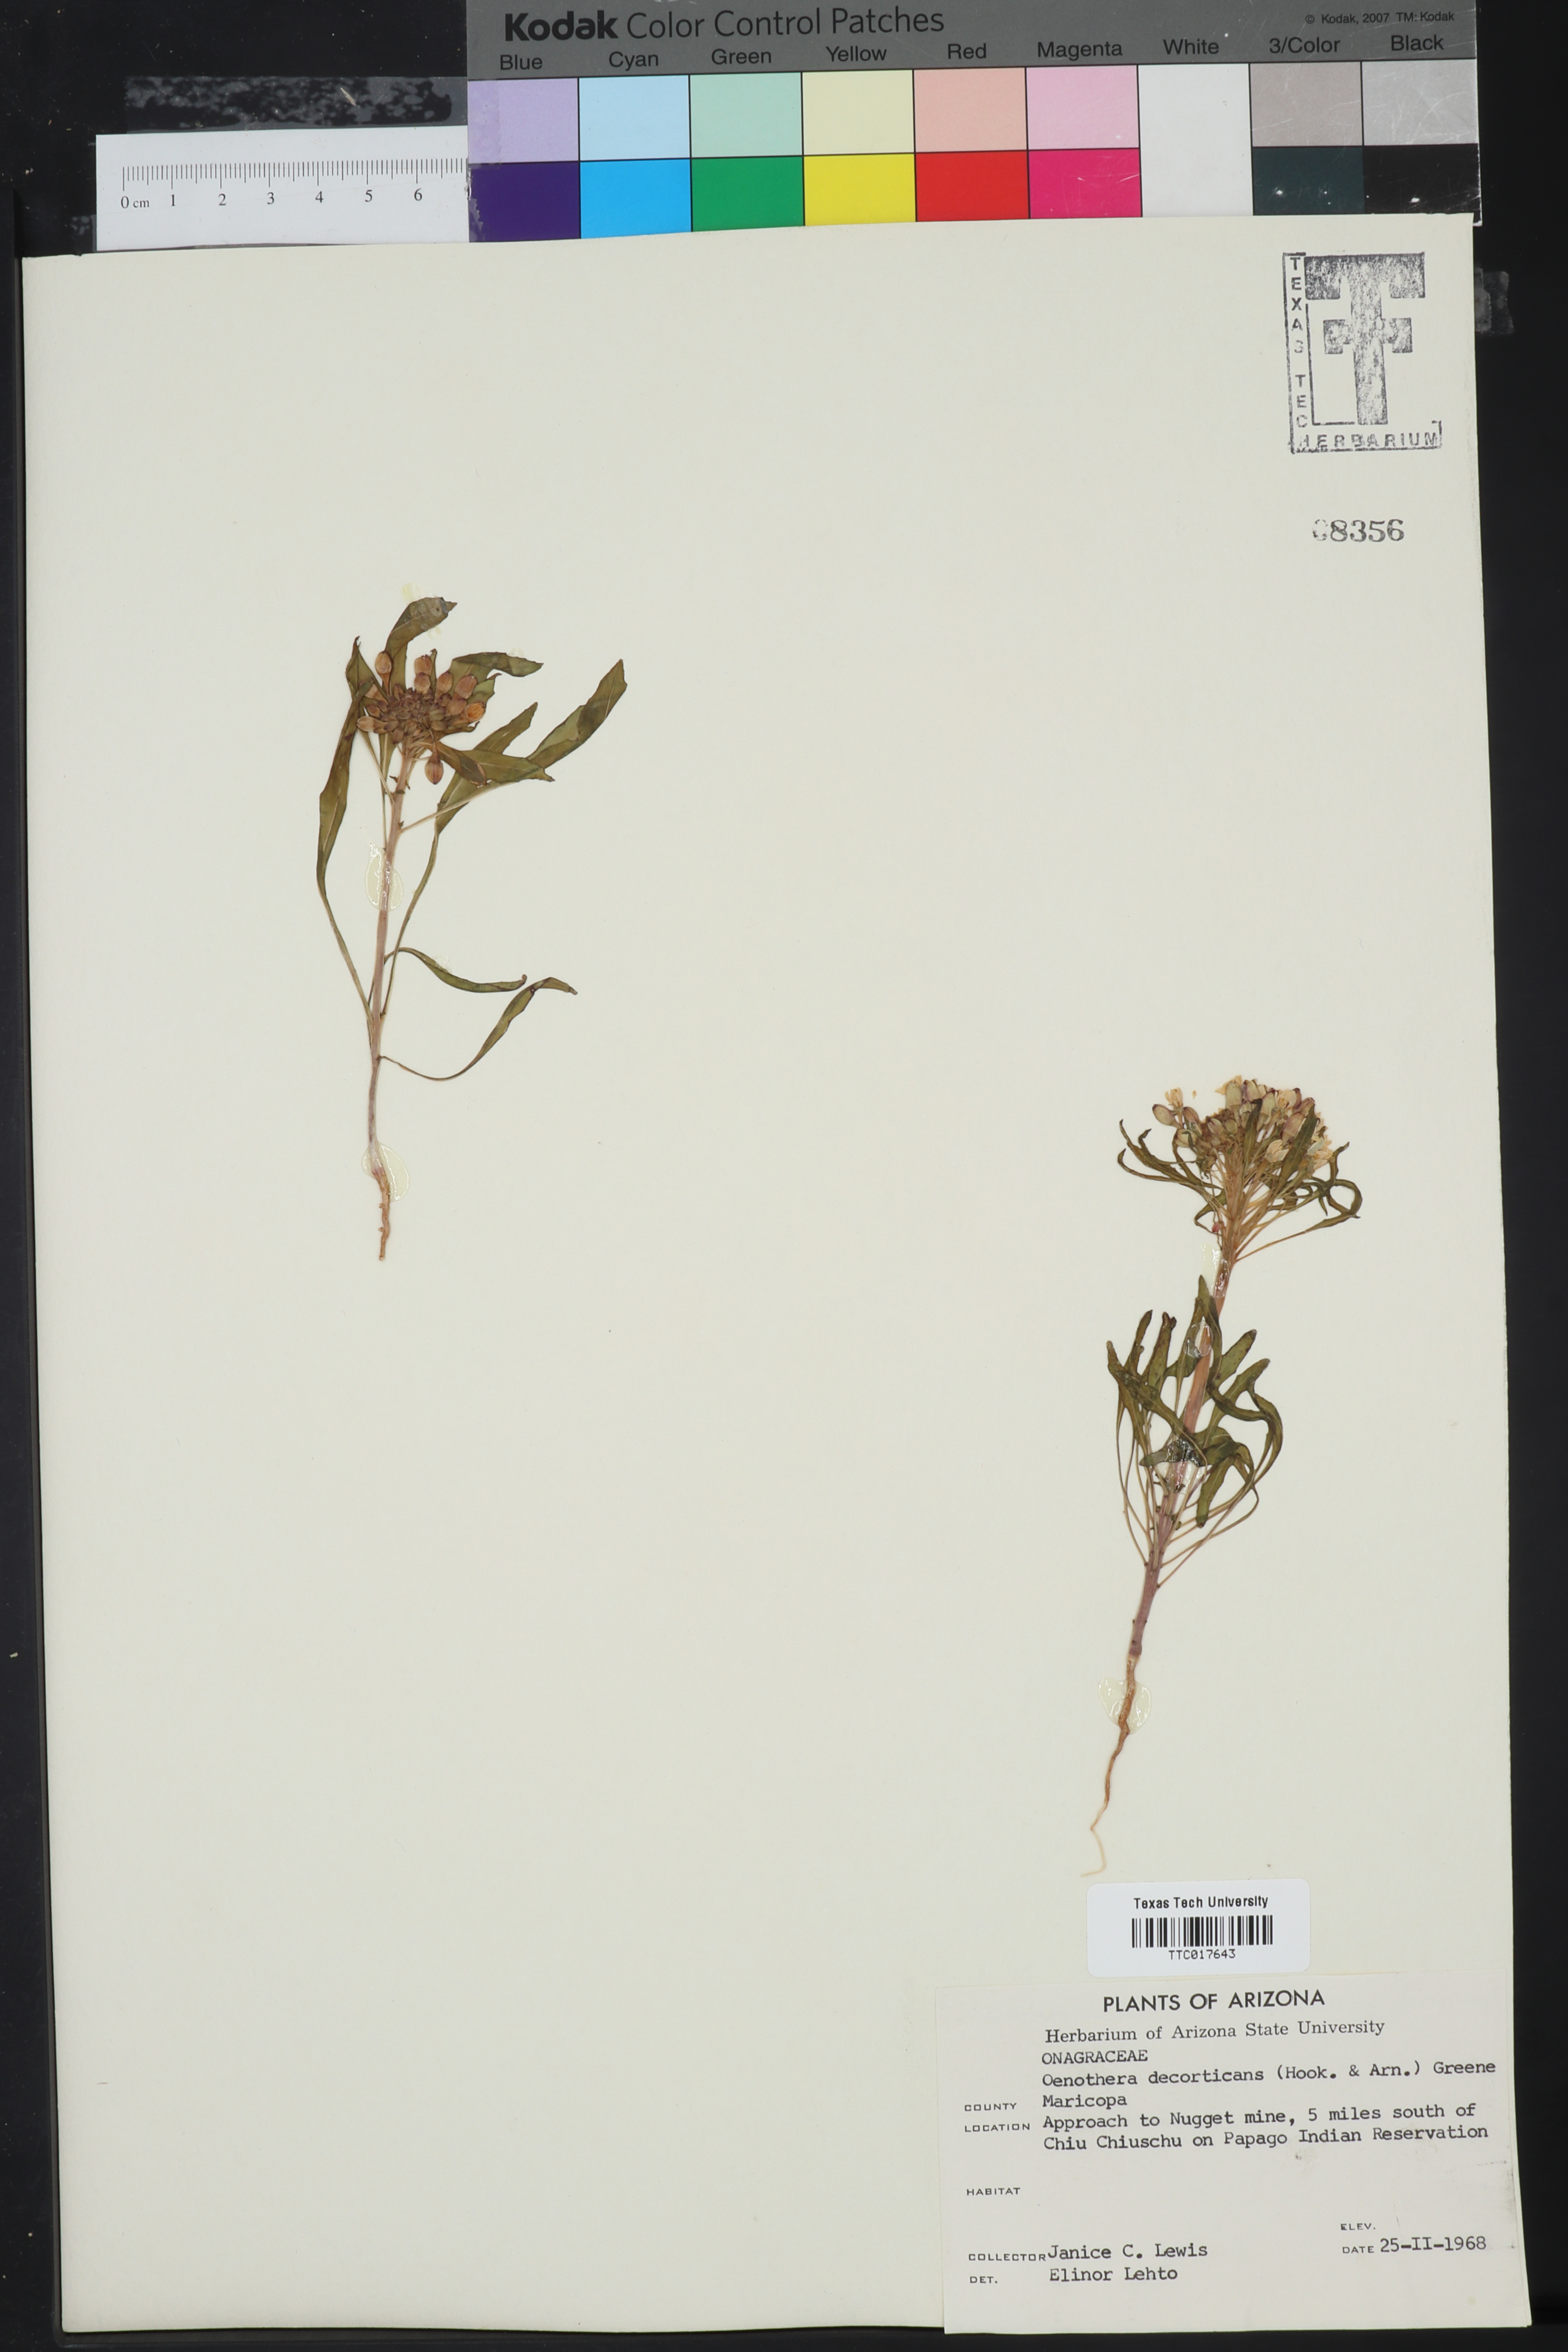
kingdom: Plantae
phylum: Tracheophyta
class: Magnoliopsida
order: Myrtales
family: Onagraceae
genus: Eremothera
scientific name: Eremothera boothii
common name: Booth's evening primrose
